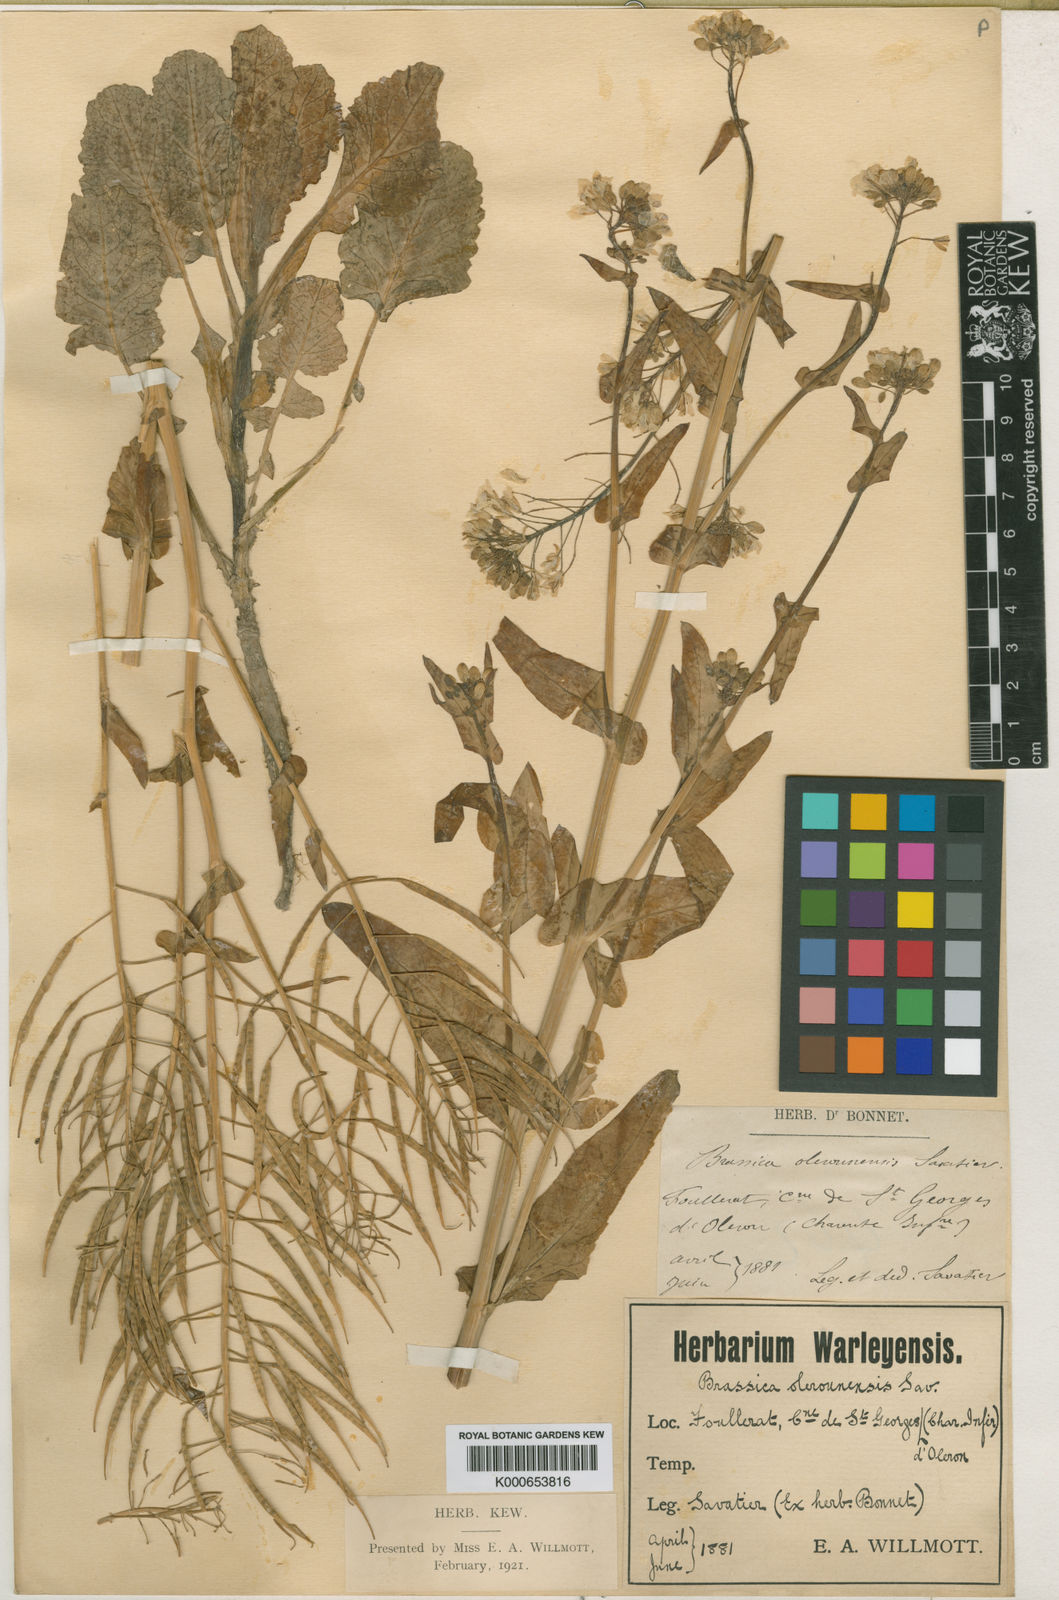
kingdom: Plantae
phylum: Tracheophyta
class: Magnoliopsida
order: Brassicales
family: Brassicaceae
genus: Brassica
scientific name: Brassica rapa
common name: Field mustard
